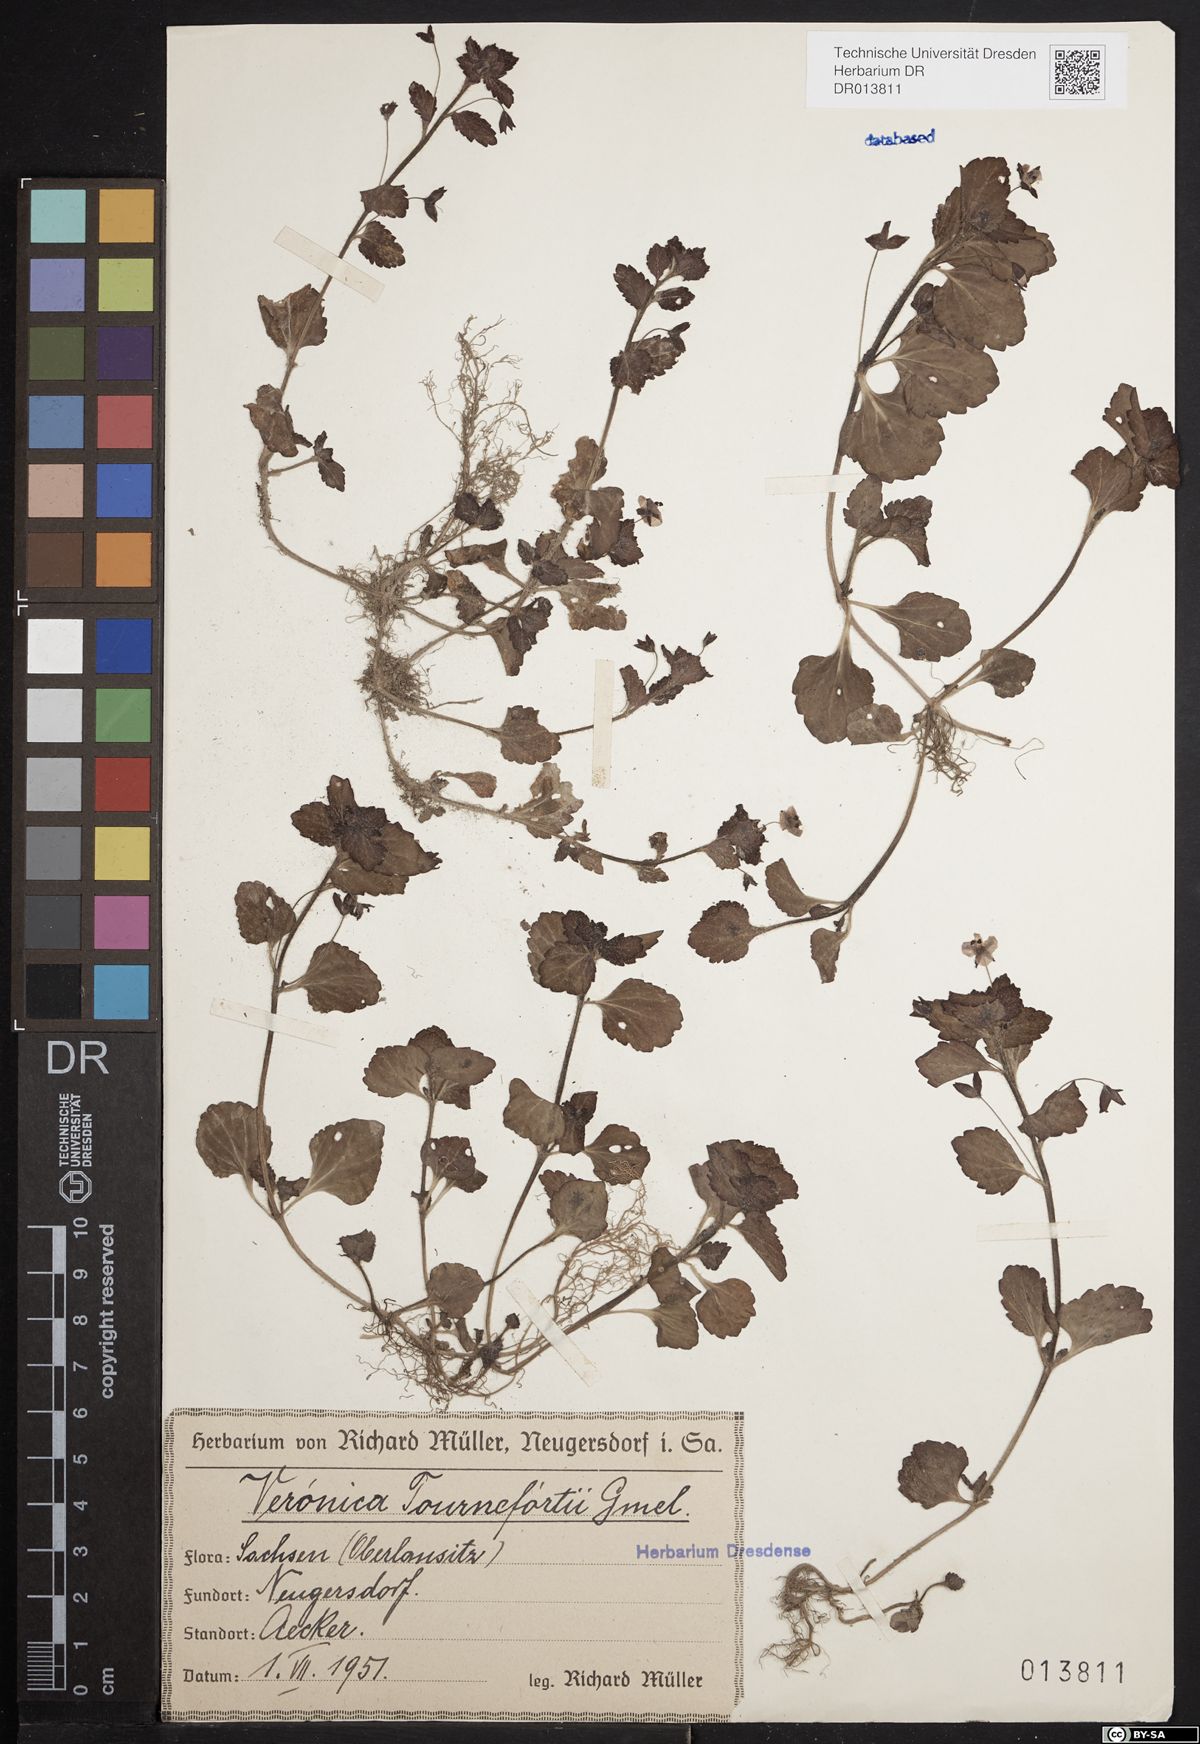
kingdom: Plantae
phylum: Tracheophyta
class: Magnoliopsida
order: Lamiales
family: Plantaginaceae
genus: Veronica
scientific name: Veronica persica
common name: Common field-speedwell
